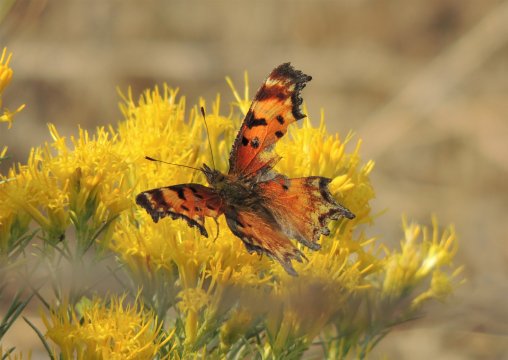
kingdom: Animalia
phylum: Arthropoda
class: Insecta
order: Lepidoptera
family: Nymphalidae
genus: Polygonia
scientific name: Polygonia gracilis
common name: Hoary Comma
